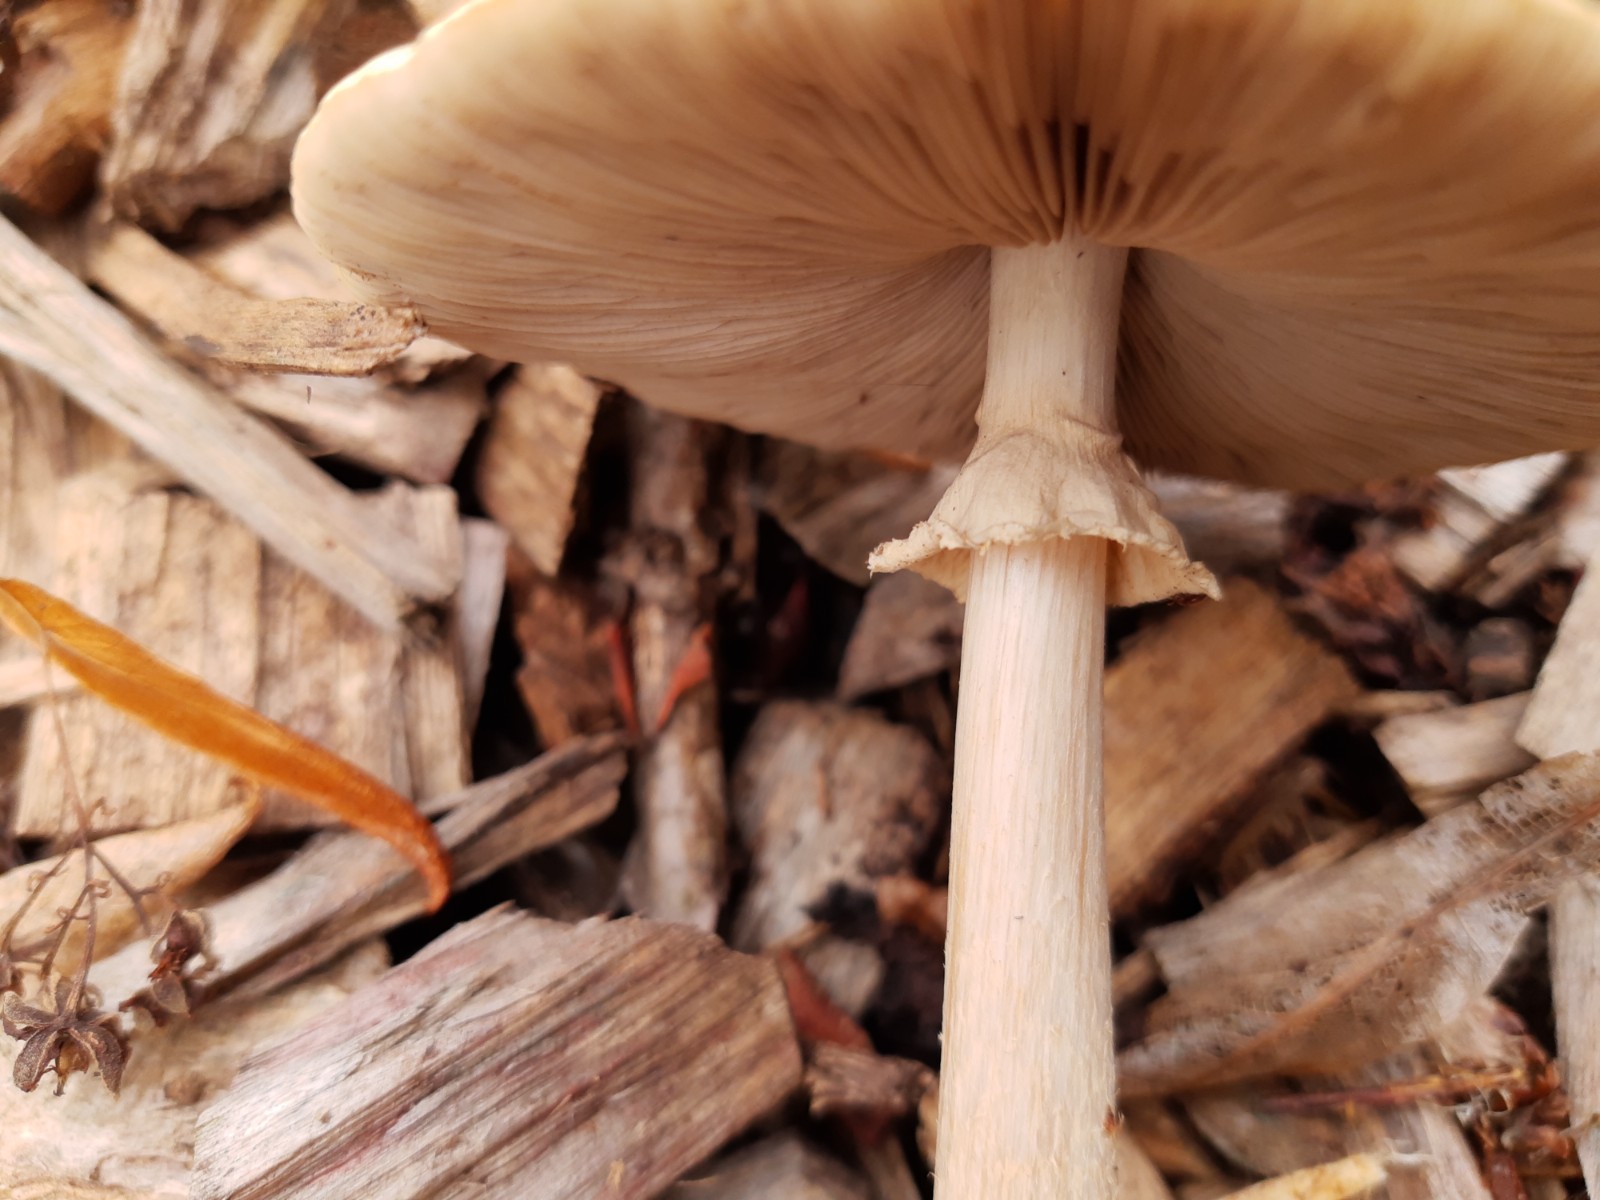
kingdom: Fungi
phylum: Basidiomycota
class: Agaricomycetes
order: Agaricales
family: Strophariaceae
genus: Agrocybe
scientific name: Agrocybe rivulosa
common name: året agerhat
